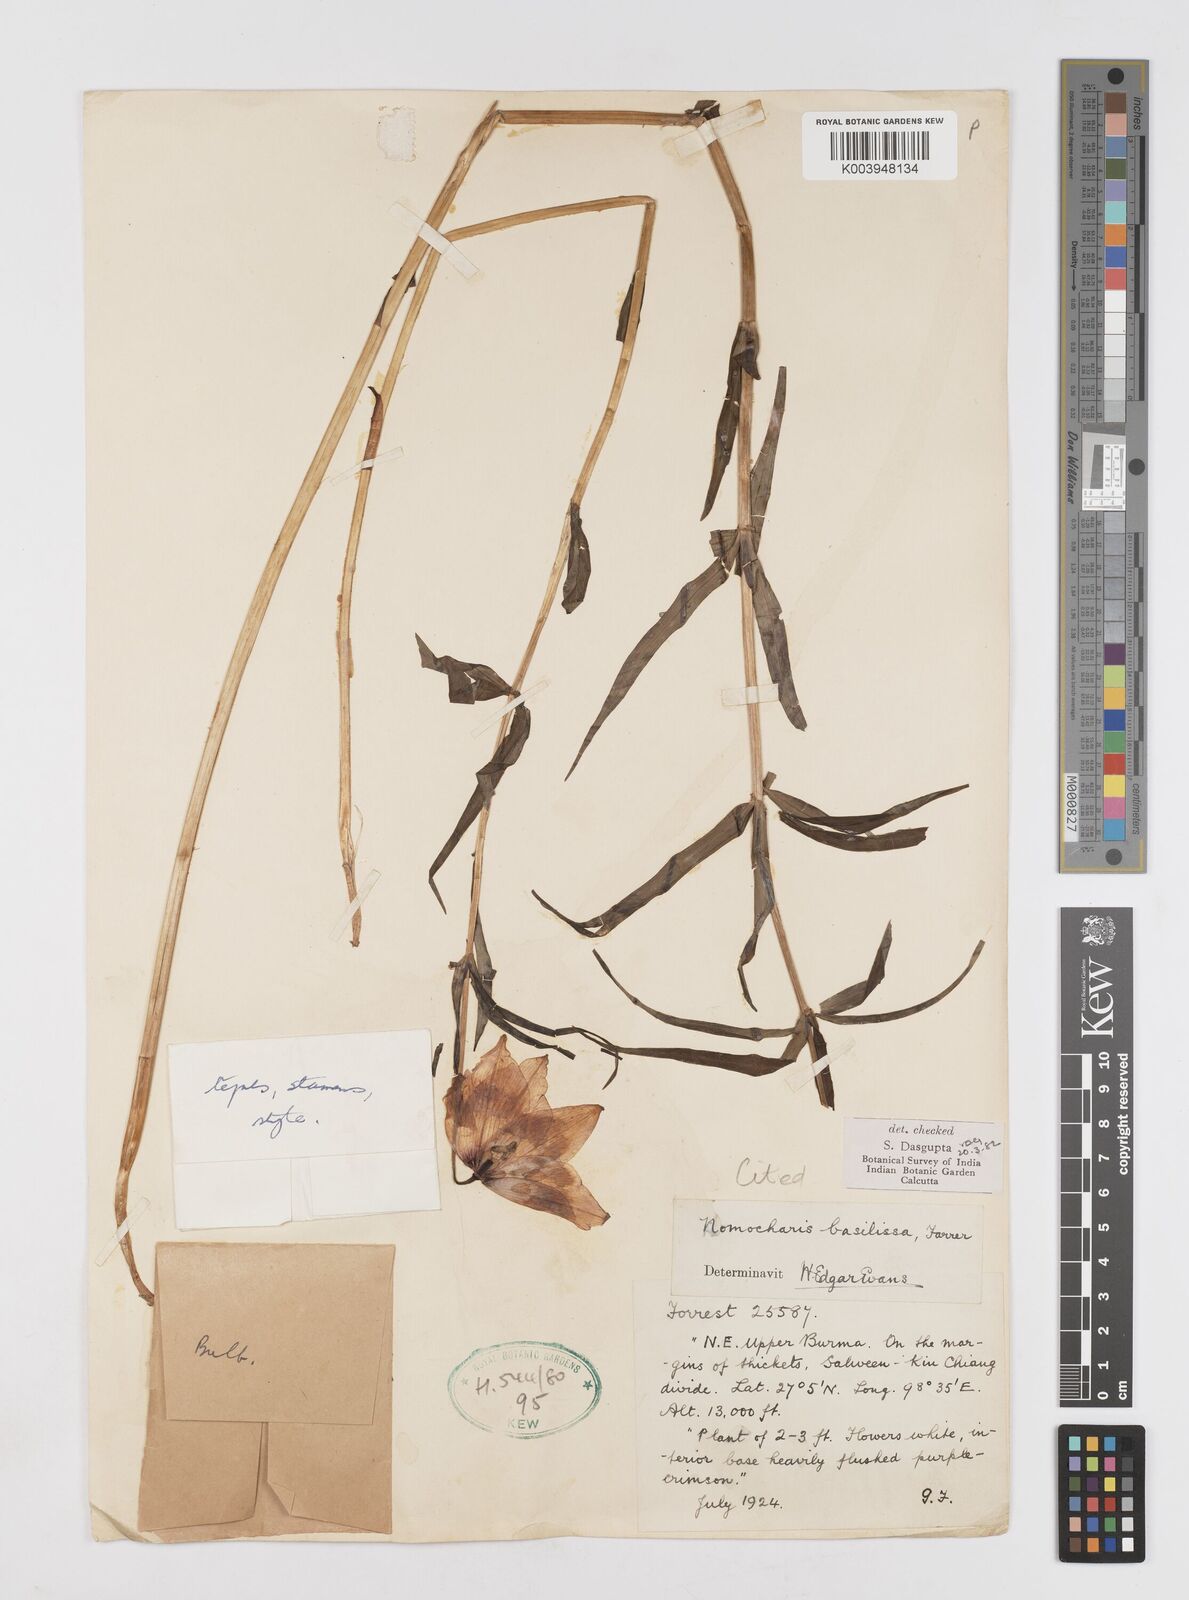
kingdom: Plantae
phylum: Tracheophyta
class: Liliopsida
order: Liliales
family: Liliaceae
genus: Lilium
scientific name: Lilium basilissum
